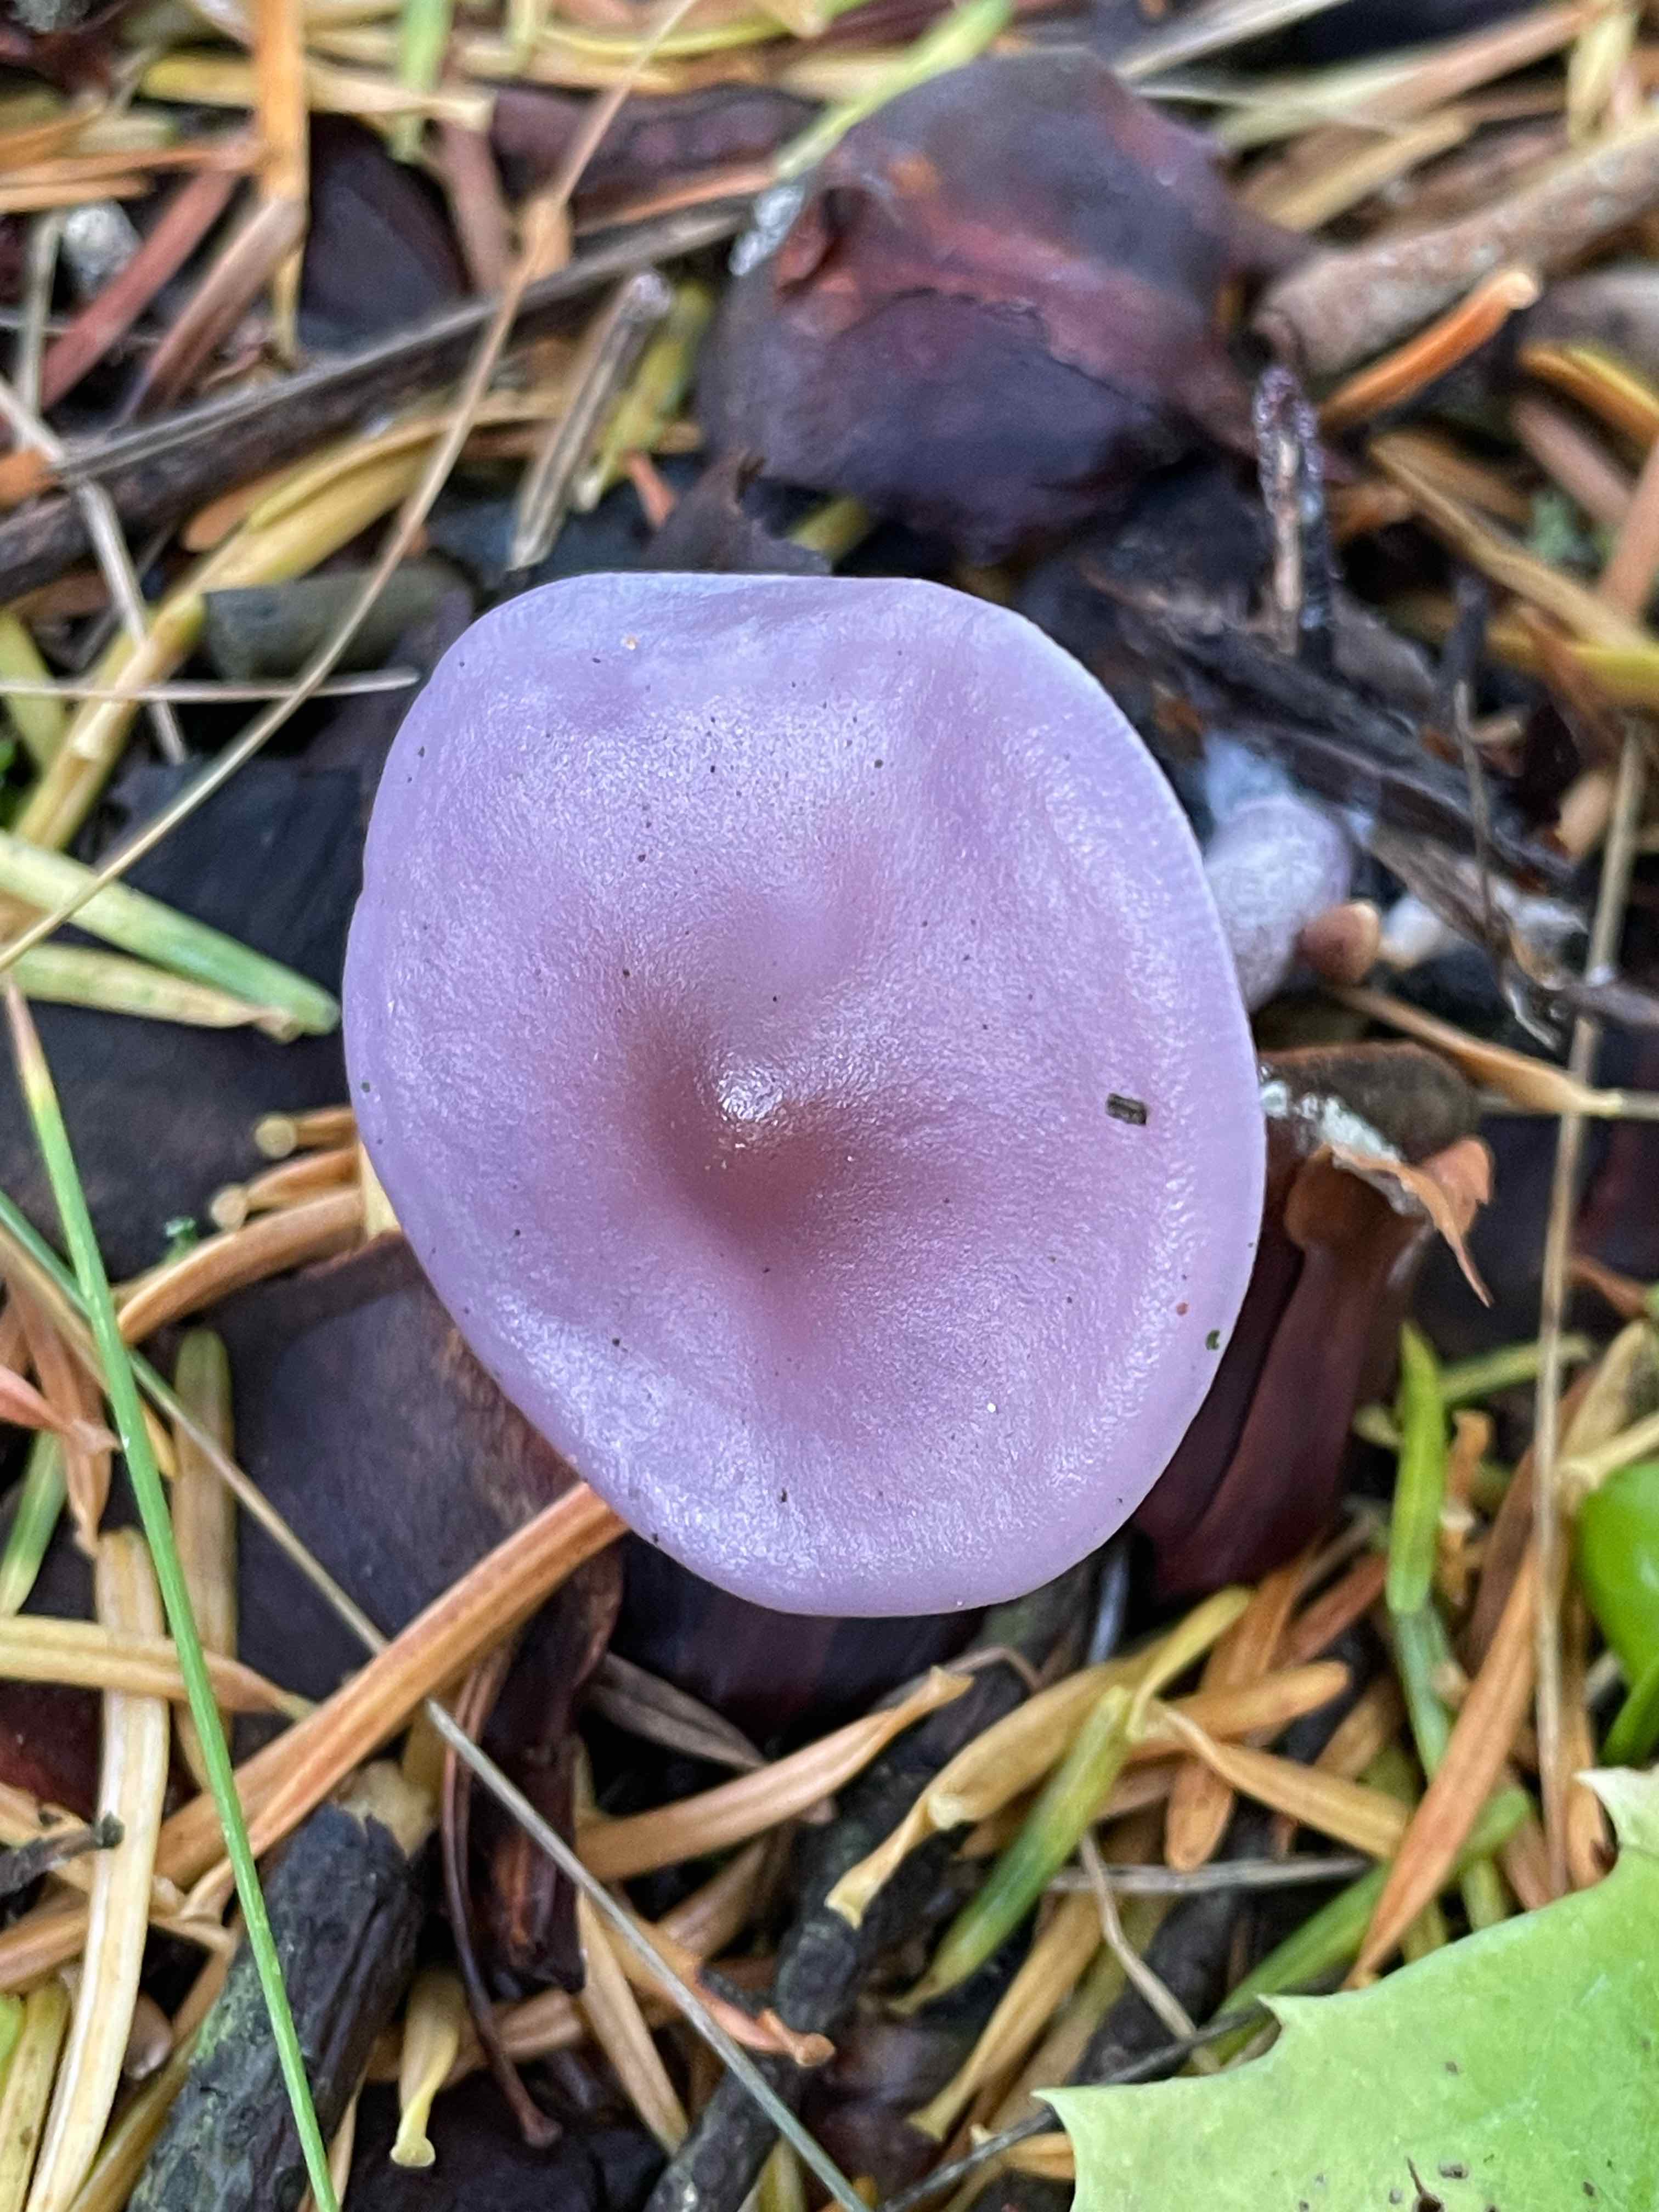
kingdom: Fungi
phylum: Basidiomycota
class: Agaricomycetes
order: Agaricales
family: Tricholomataceae
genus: Lepista
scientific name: Lepista lilacea
